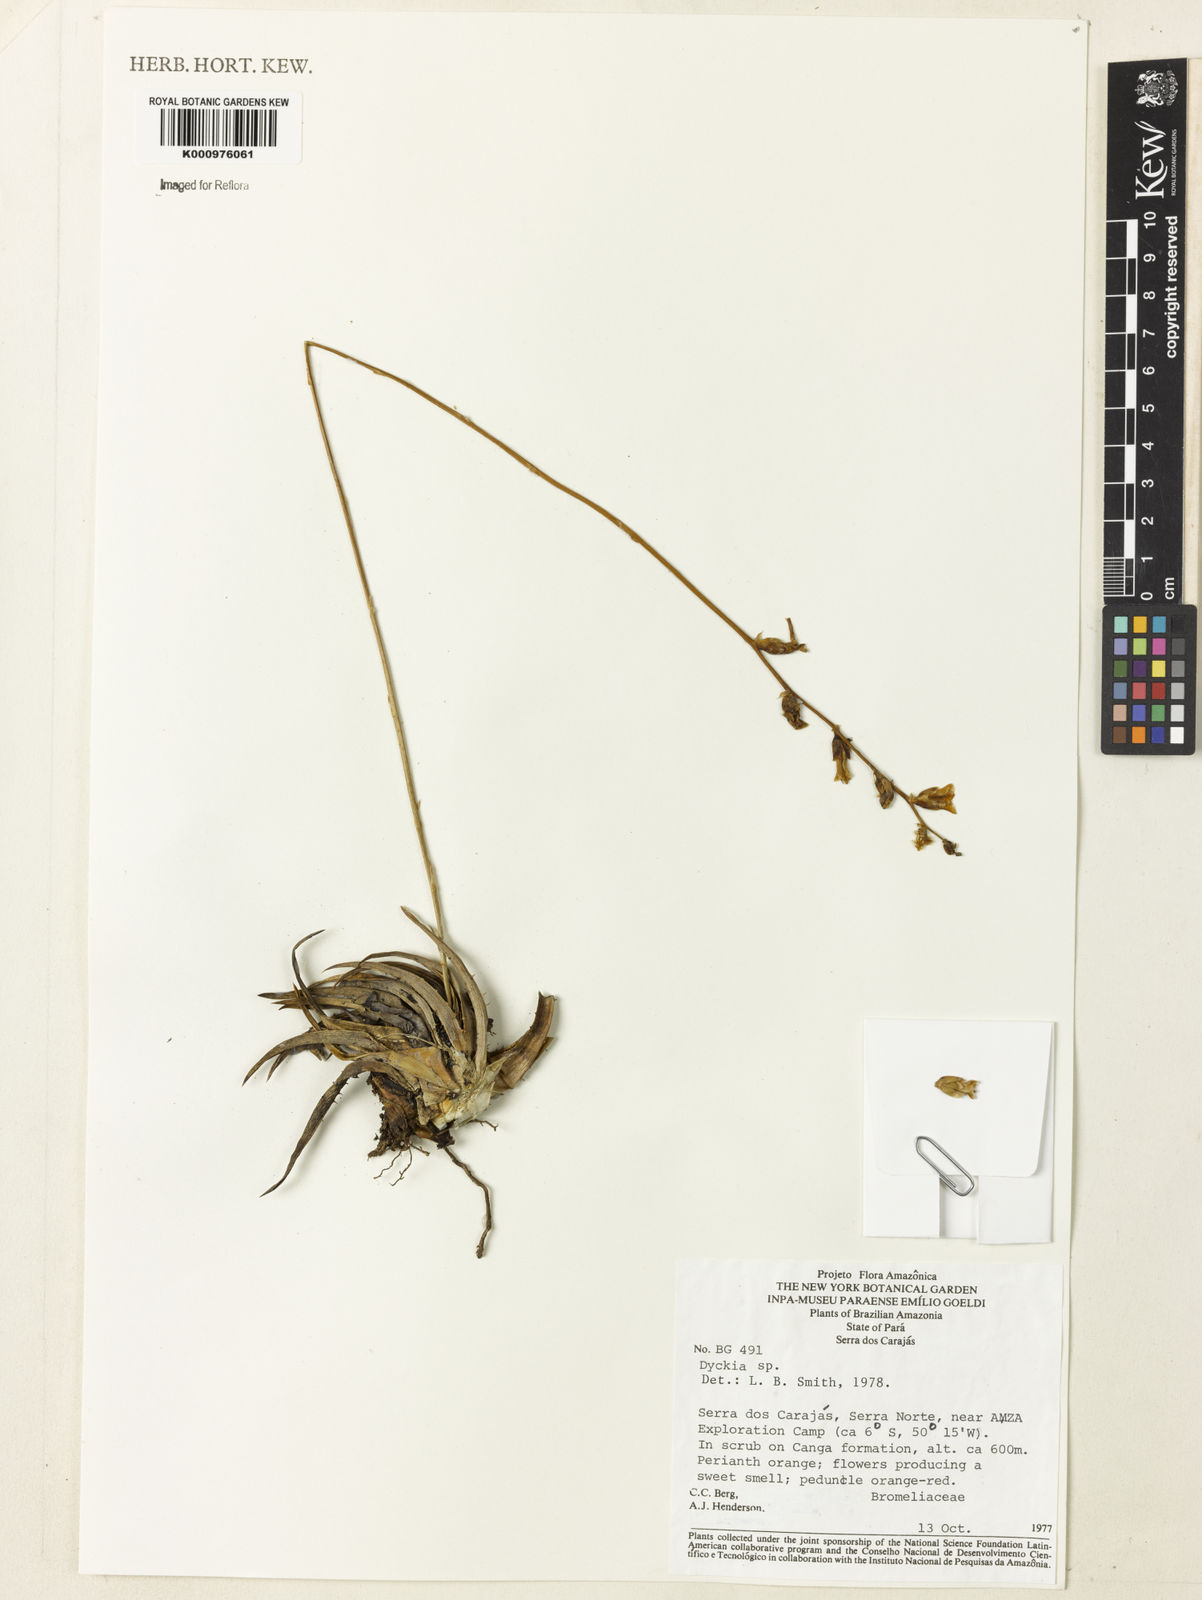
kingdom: Plantae
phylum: Tracheophyta
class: Liliopsida
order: Poales
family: Bromeliaceae
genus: Dyckia
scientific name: Dyckia
